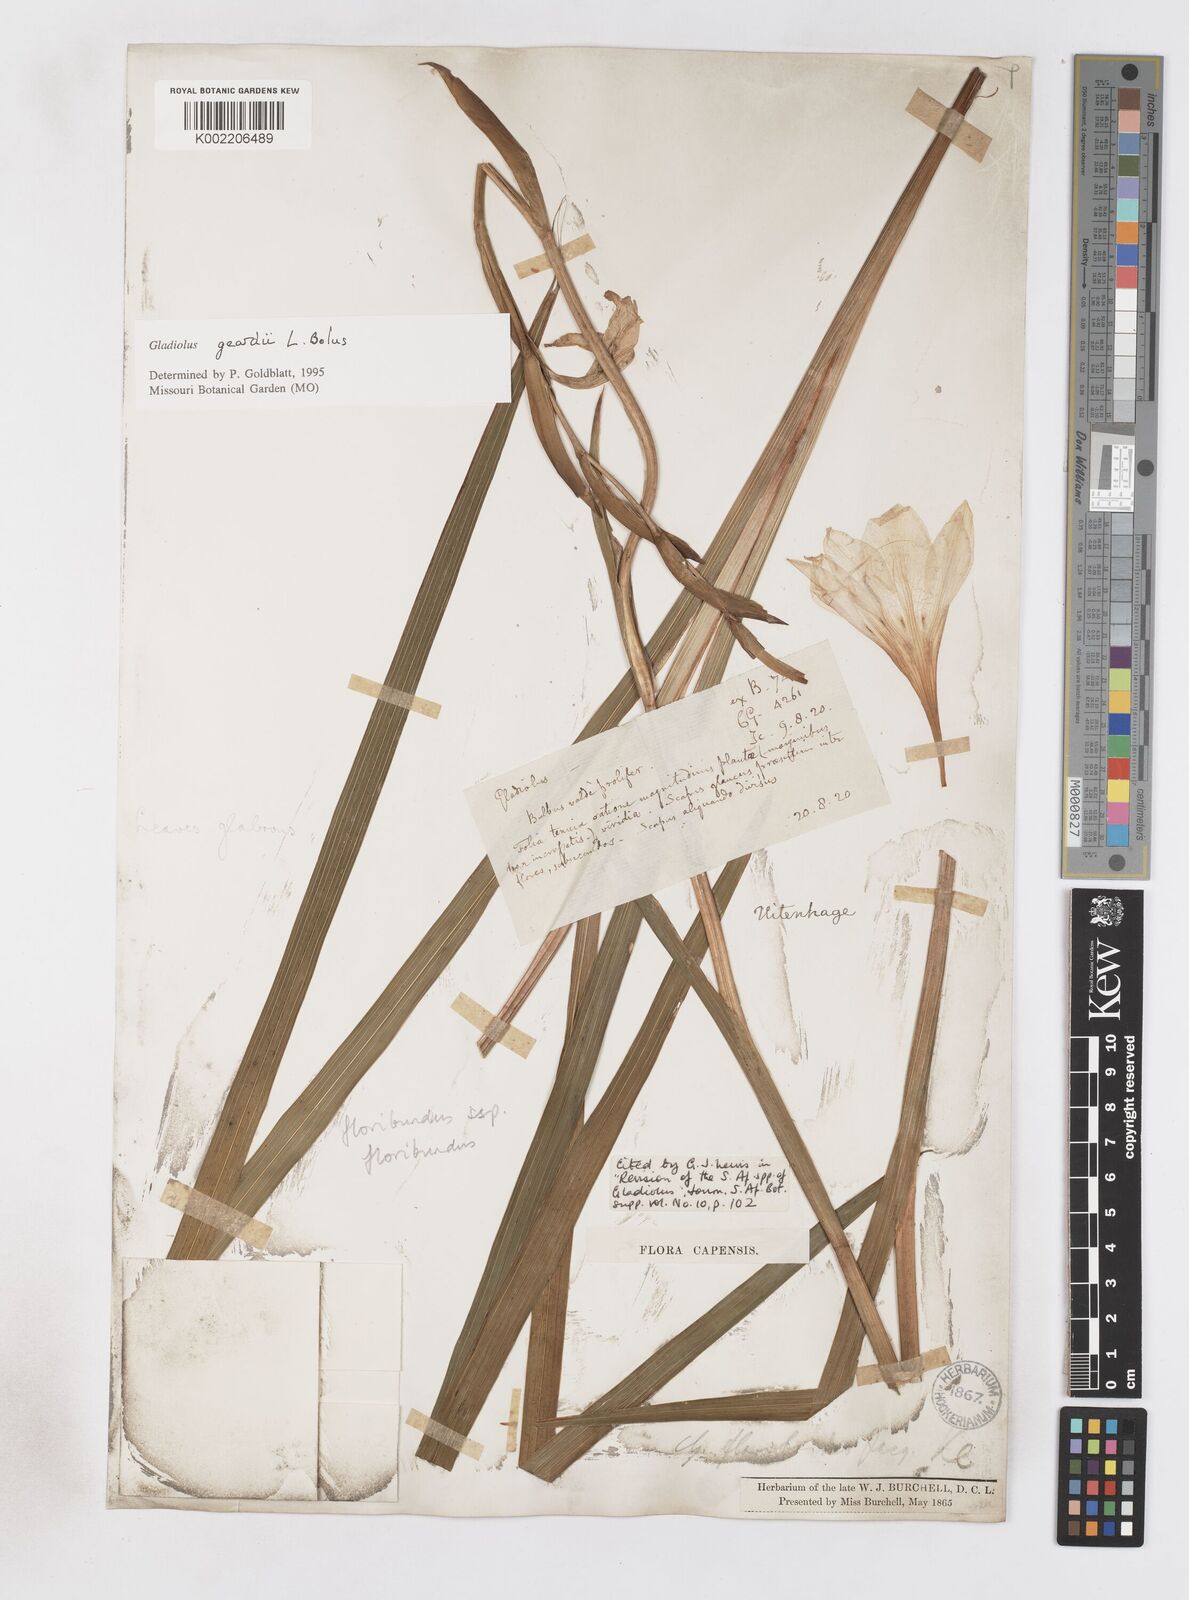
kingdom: Plantae
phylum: Tracheophyta
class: Liliopsida
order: Asparagales
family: Iridaceae
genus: Gladiolus
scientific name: Gladiolus geardii
